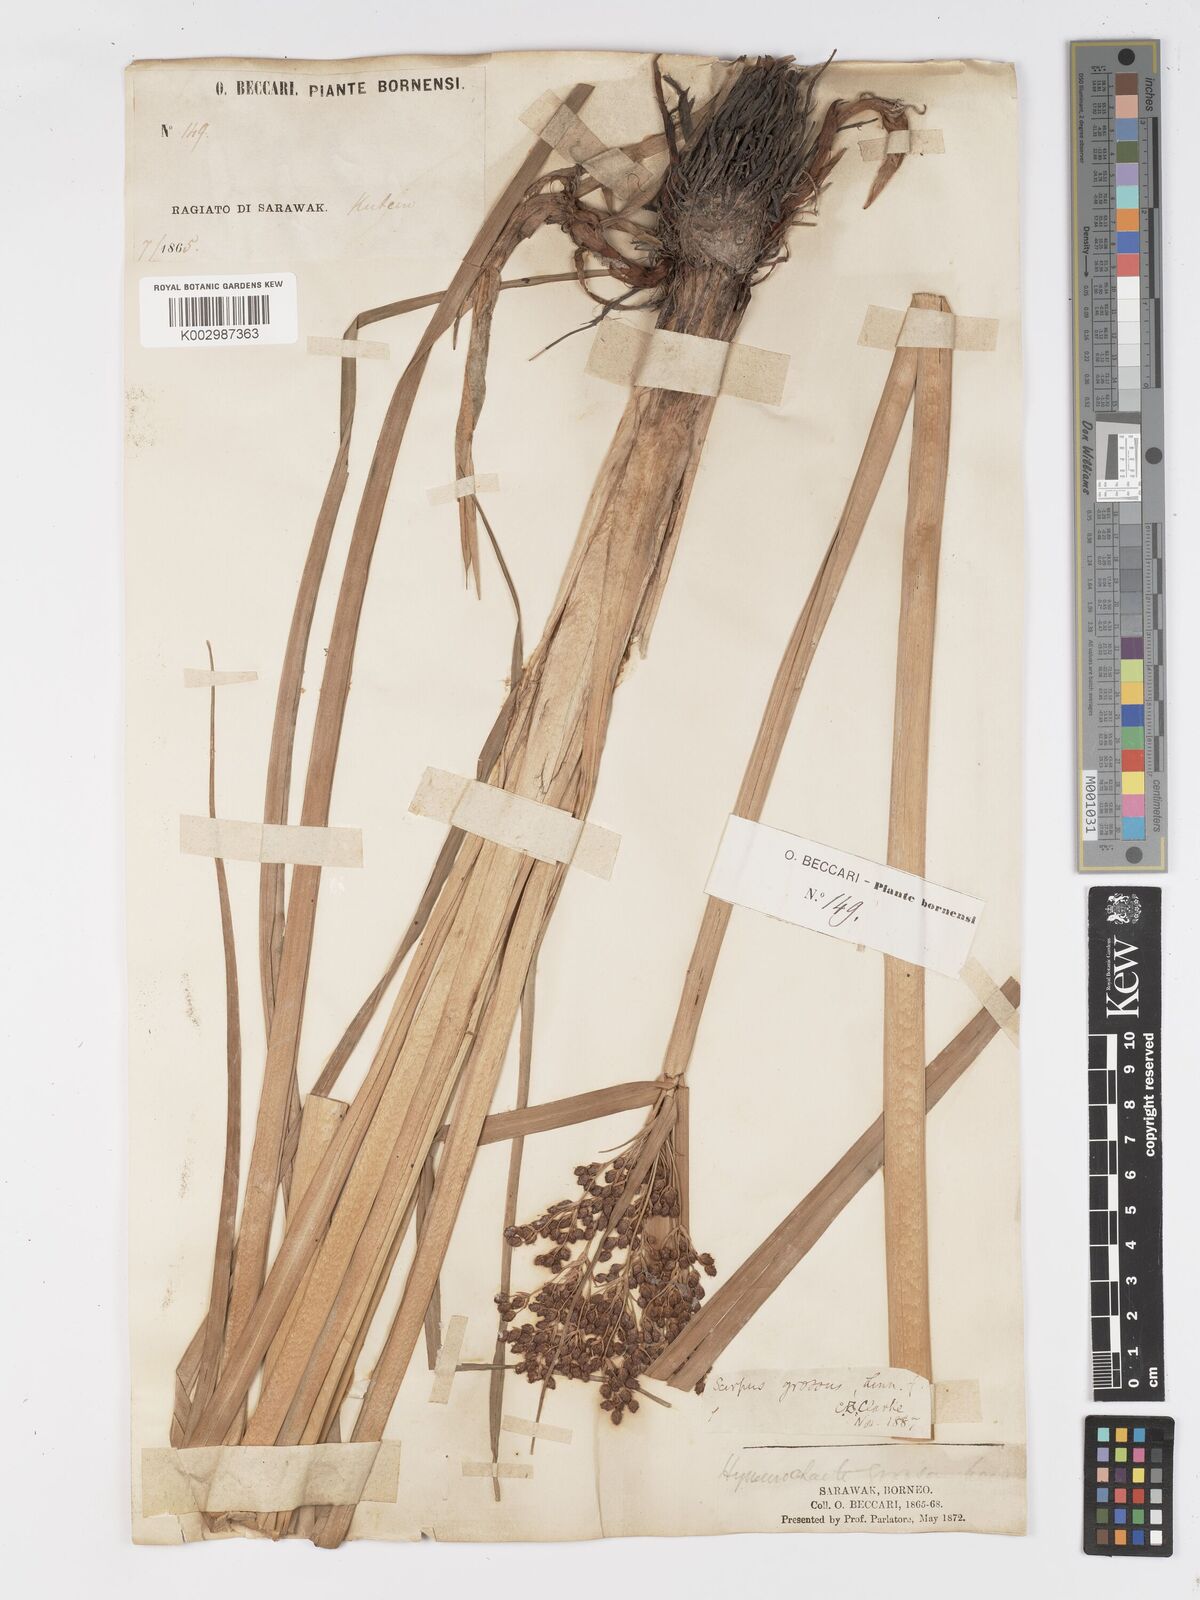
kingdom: Plantae
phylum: Tracheophyta
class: Liliopsida
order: Poales
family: Cyperaceae
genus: Actinoscirpus
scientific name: Actinoscirpus grossus
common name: Giant bur rush
